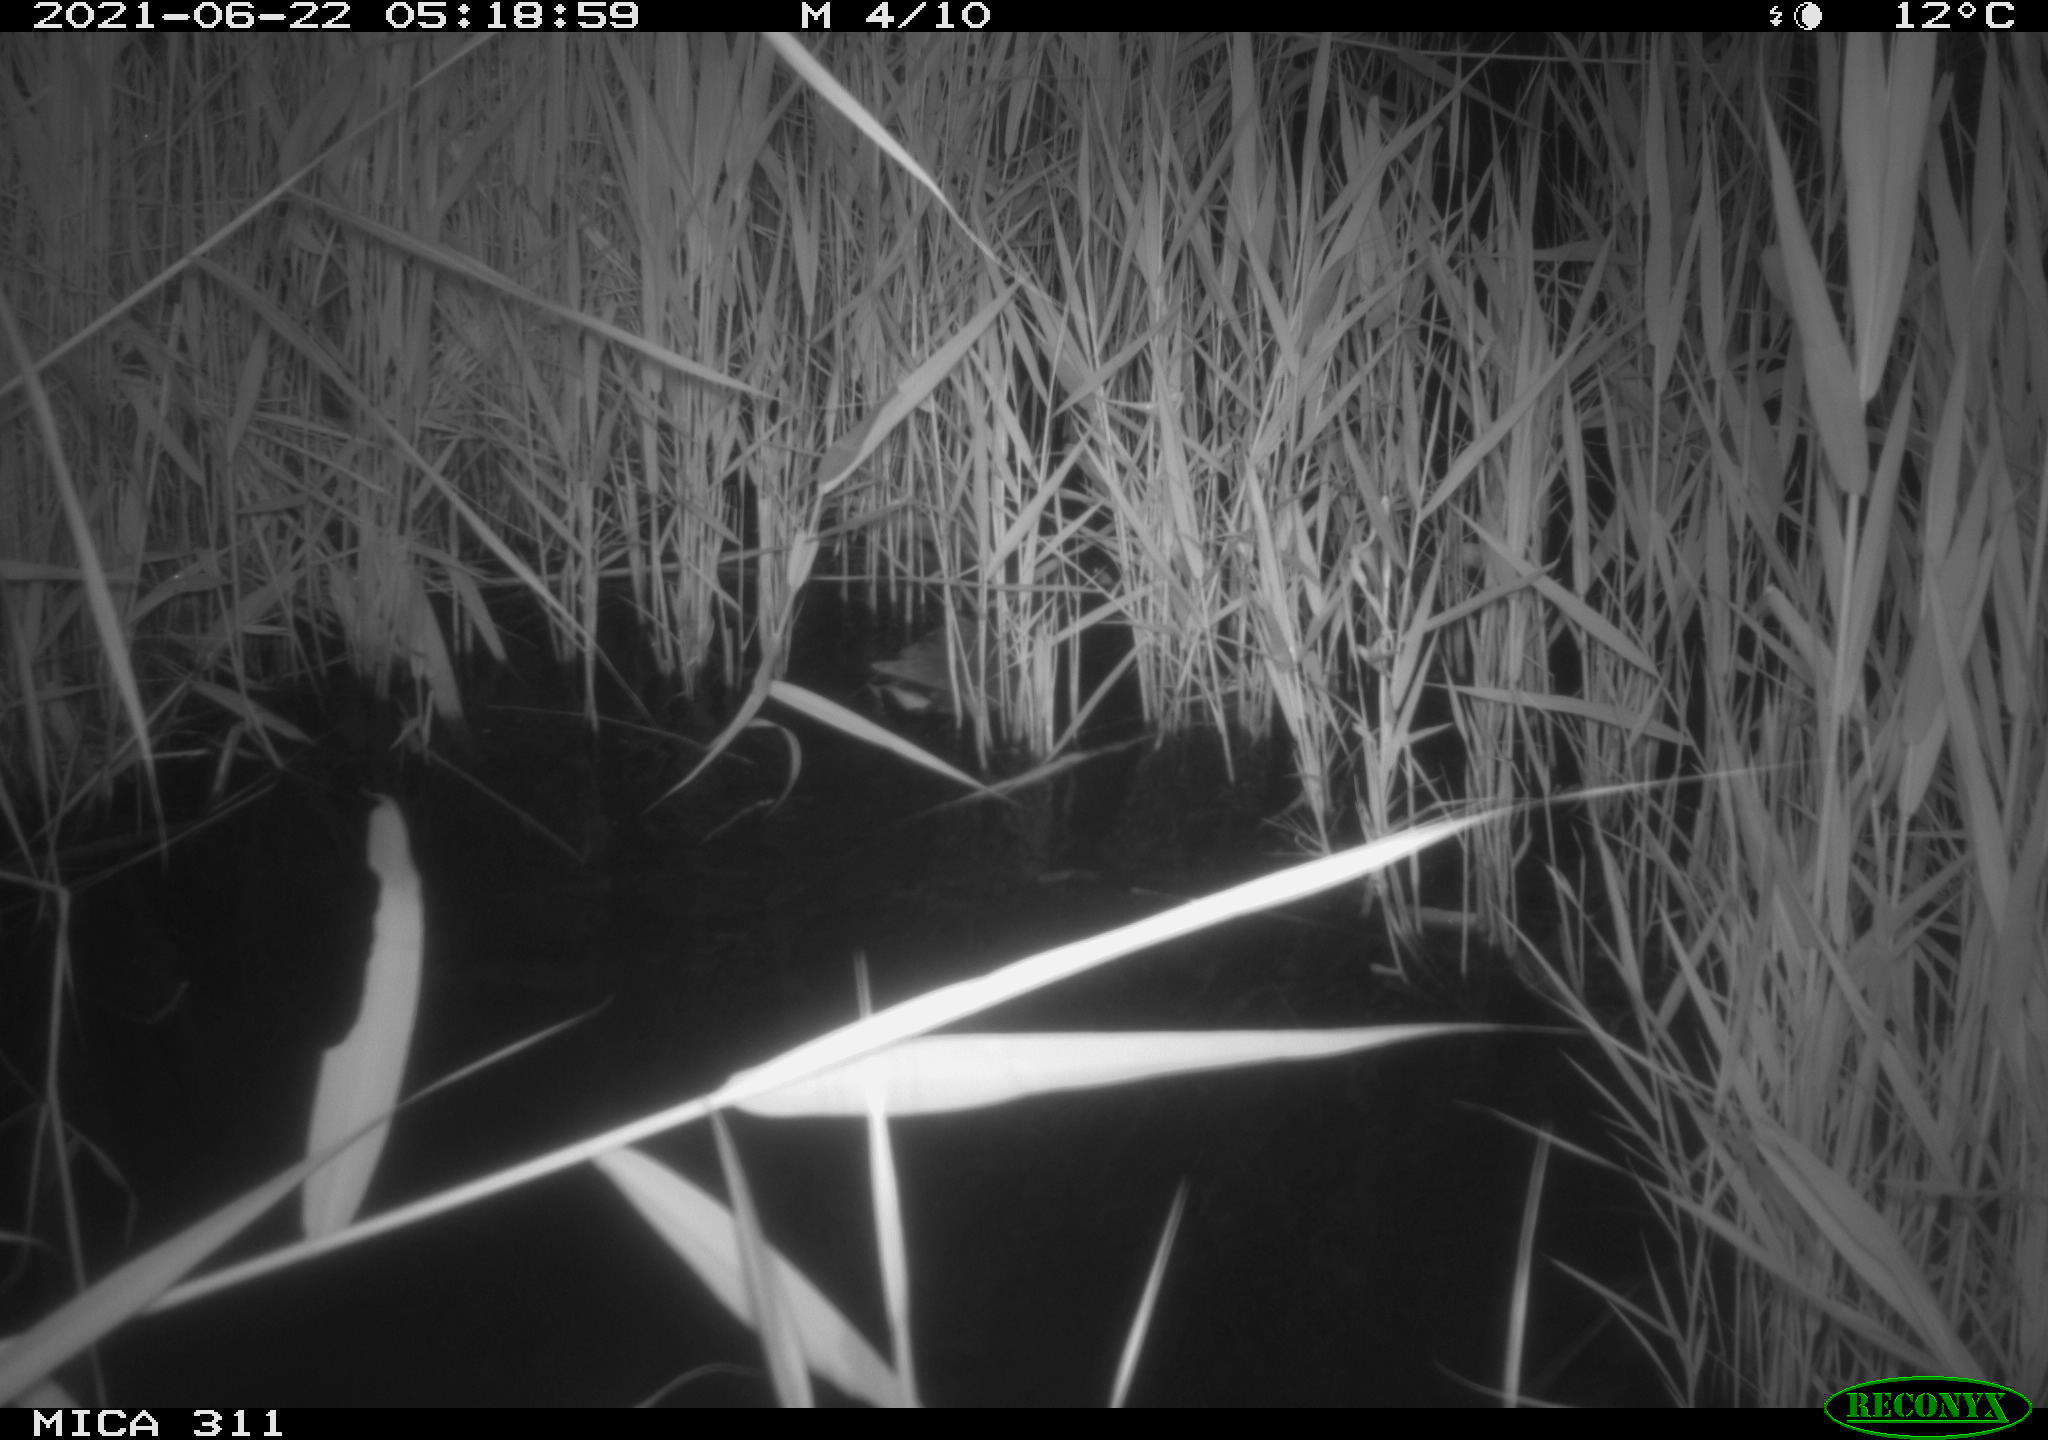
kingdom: Animalia
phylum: Chordata
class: Aves
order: Gruiformes
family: Rallidae
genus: Gallinula
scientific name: Gallinula chloropus
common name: Common moorhen
